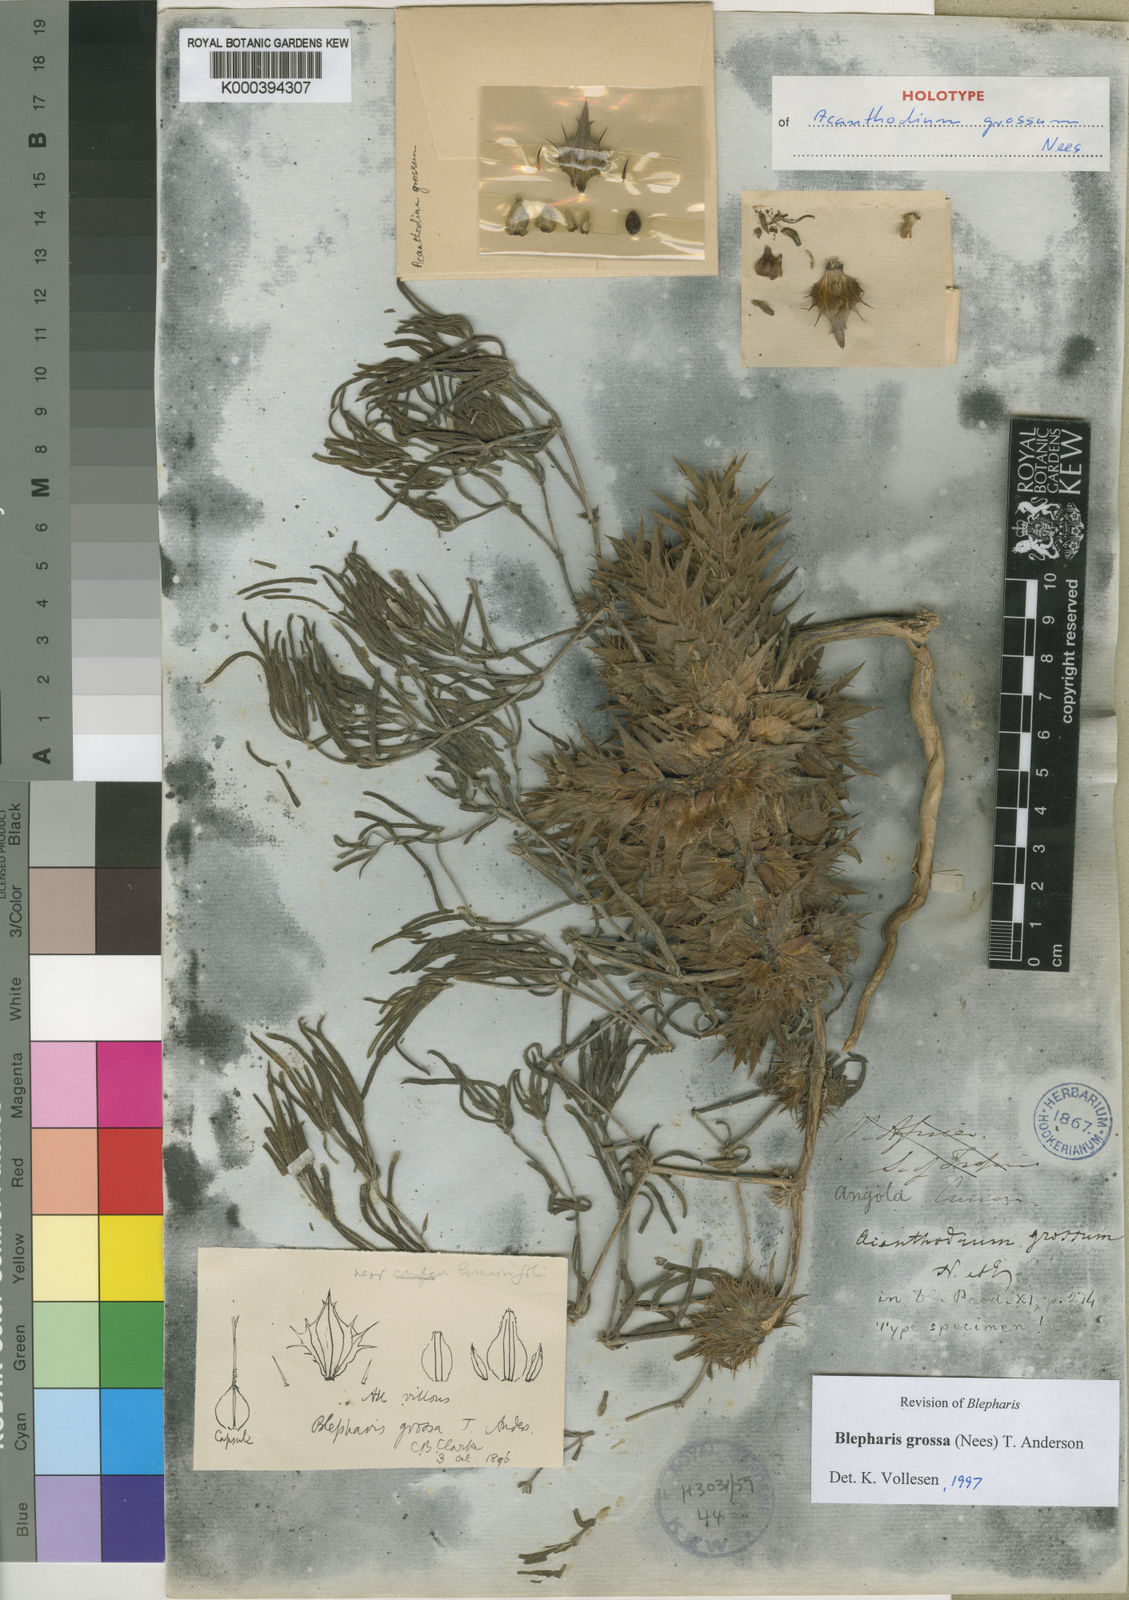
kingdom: Plantae
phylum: Tracheophyta
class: Magnoliopsida
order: Lamiales
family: Acanthaceae
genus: Blepharis
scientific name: Blepharis grossa
